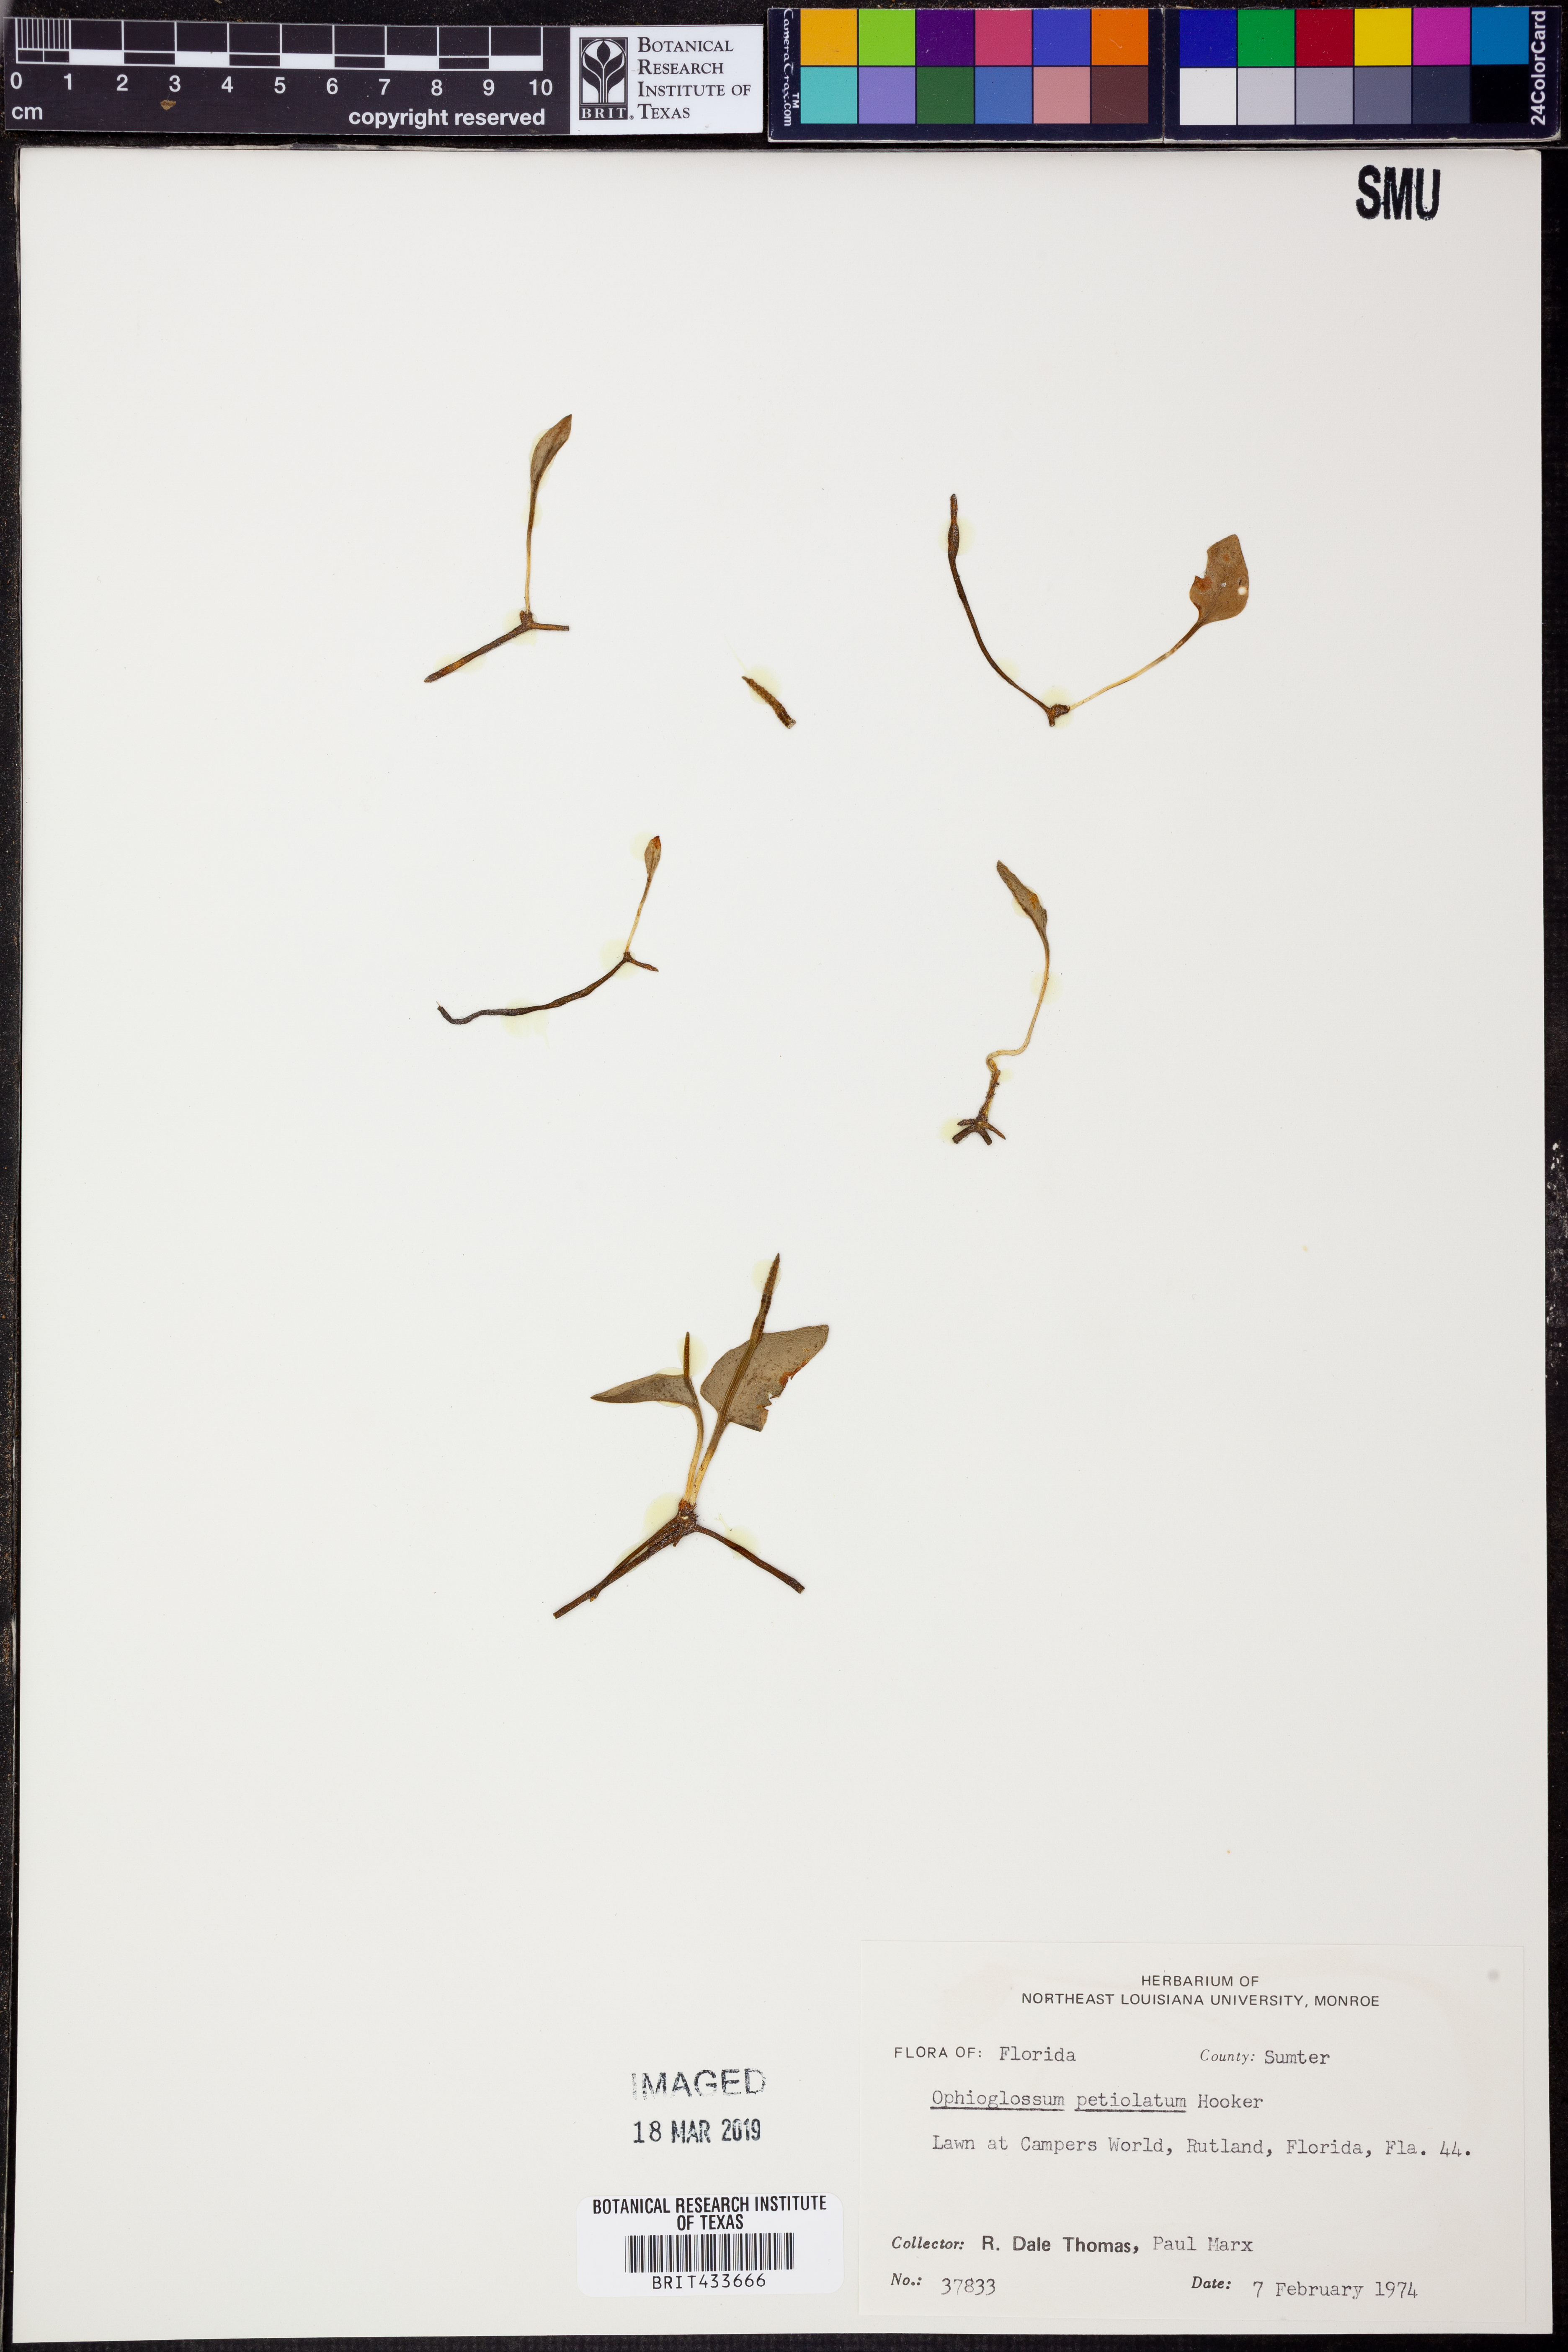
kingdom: Plantae
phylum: Tracheophyta
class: Polypodiopsida
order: Ophioglossales
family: Ophioglossaceae
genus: Ophioglossum
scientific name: Ophioglossum petiolatum
